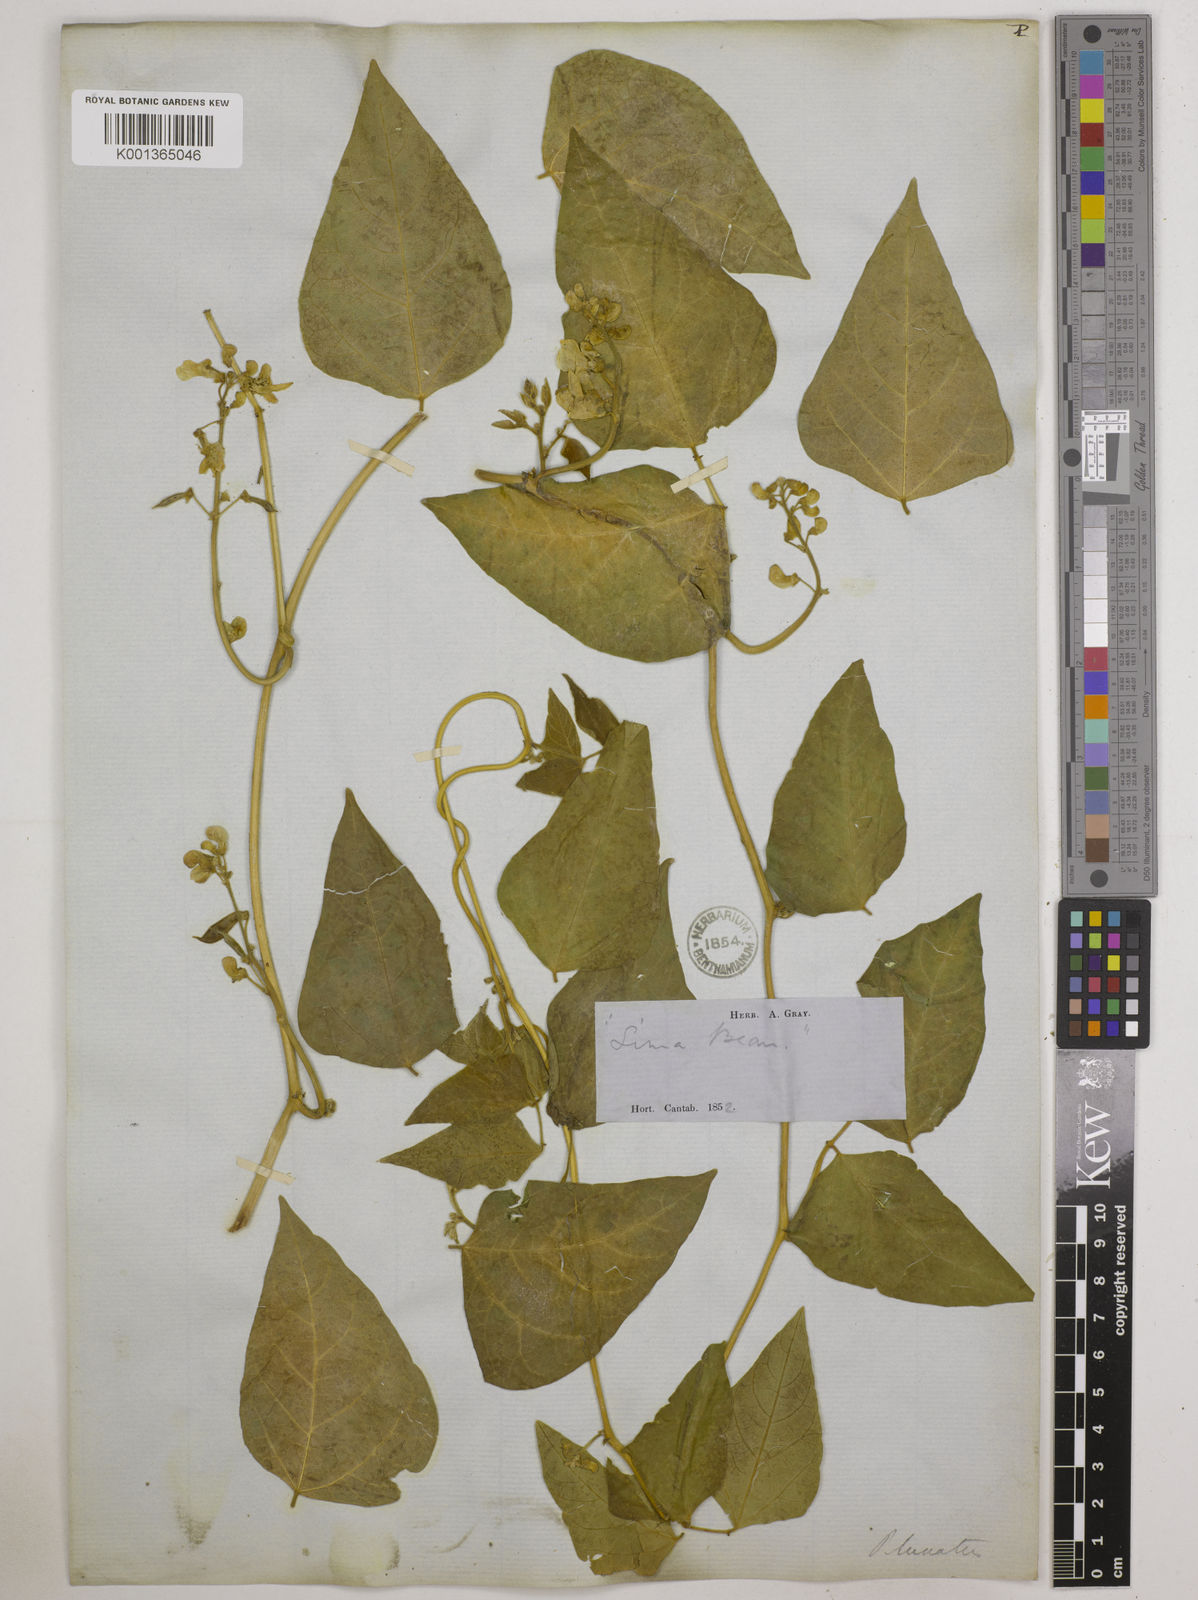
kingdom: Plantae
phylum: Tracheophyta
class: Magnoliopsida
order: Fabales
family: Fabaceae
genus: Phaseolus
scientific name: Phaseolus
